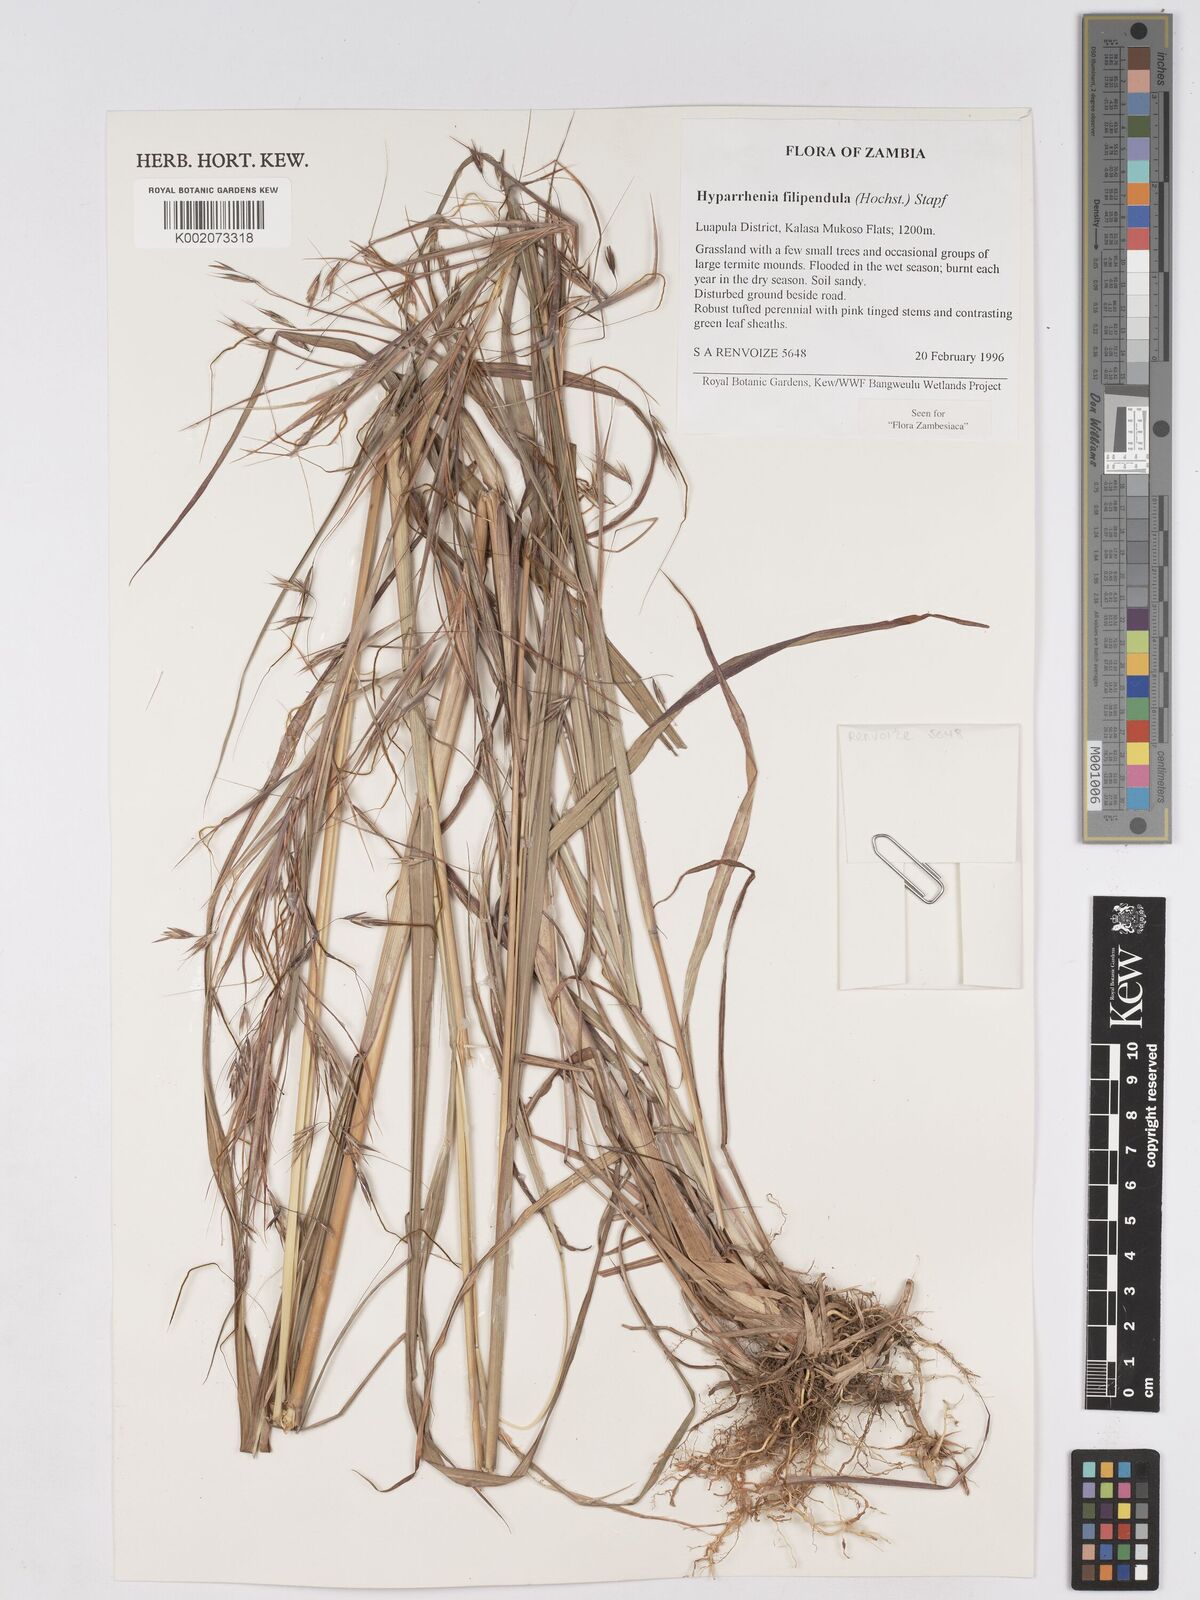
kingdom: Plantae
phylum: Tracheophyta
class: Liliopsida
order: Poales
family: Poaceae
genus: Hyparrhenia
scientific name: Hyparrhenia filipendula
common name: Tambookie grass
